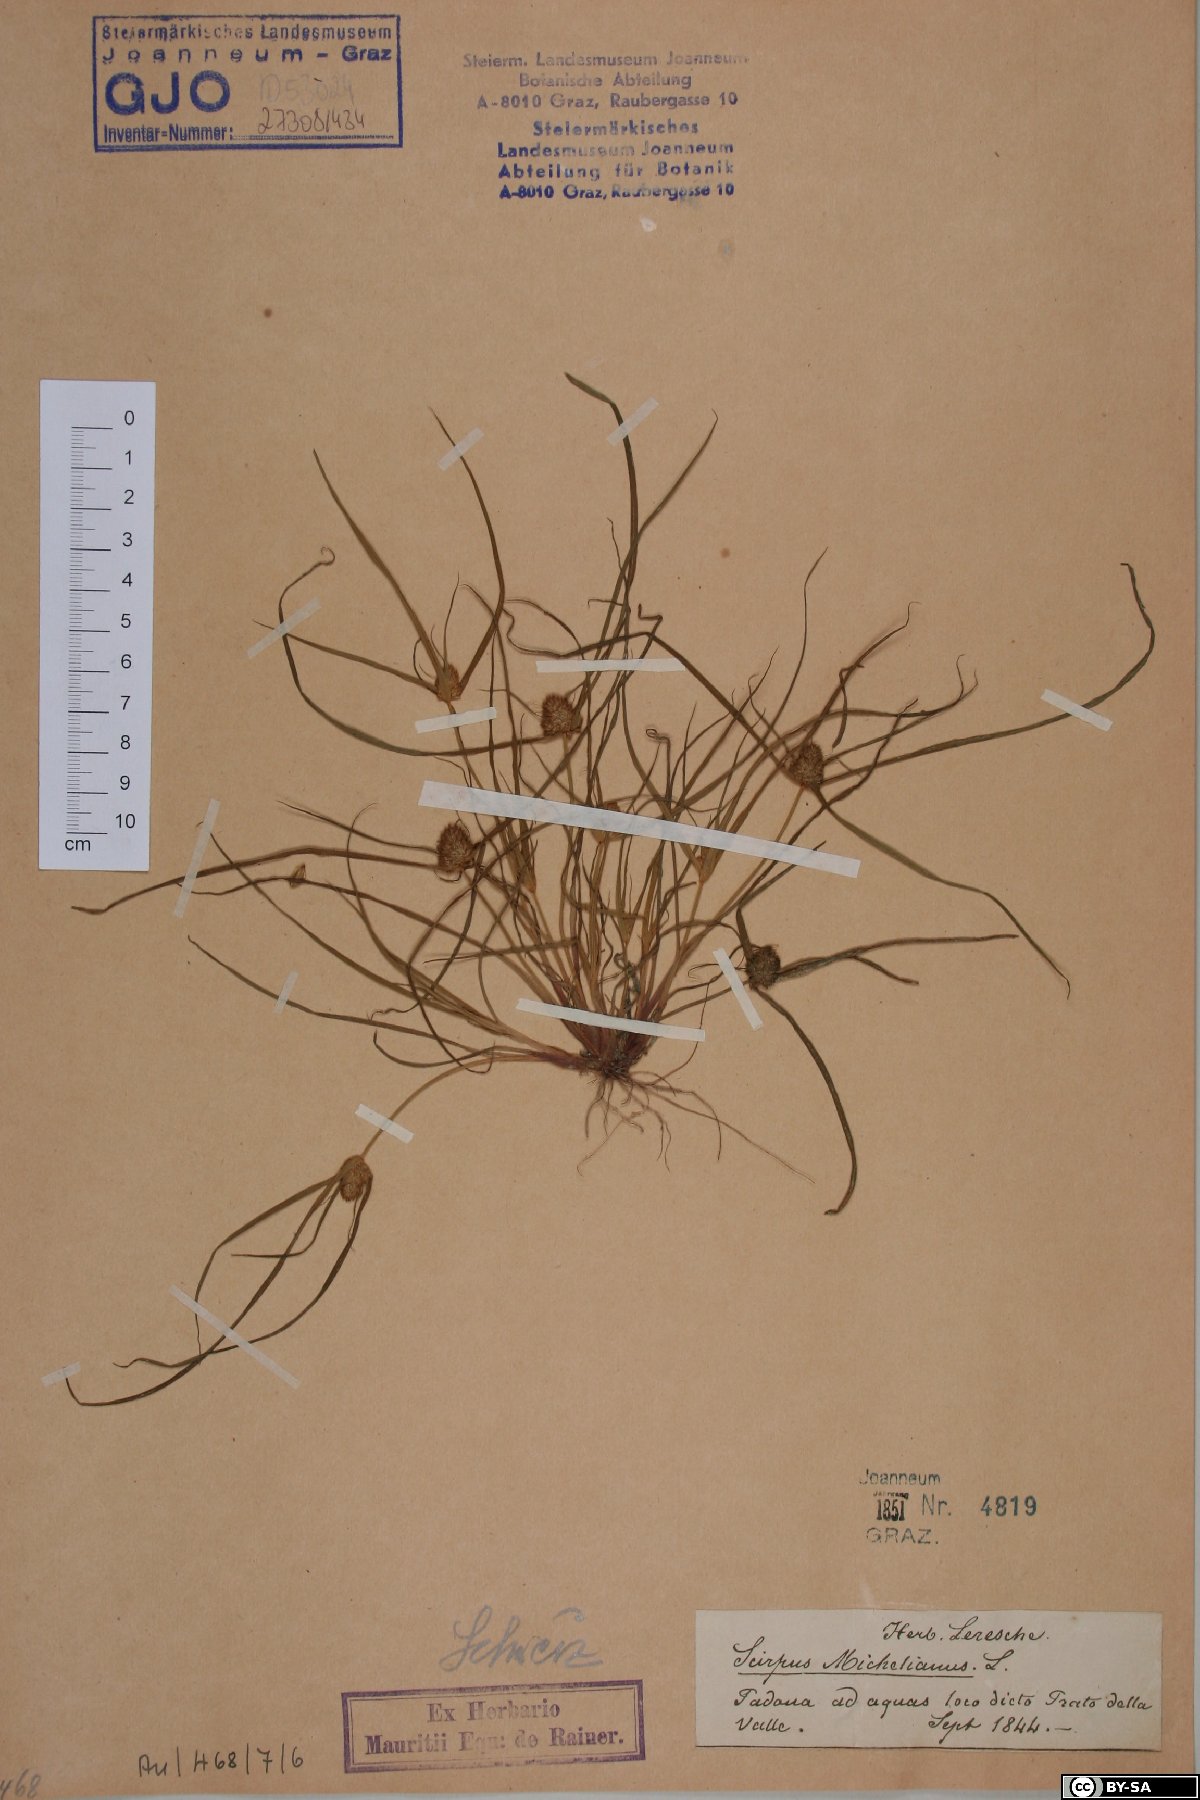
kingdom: Plantae
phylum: Tracheophyta
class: Liliopsida
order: Poales
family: Cyperaceae
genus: Cyperus
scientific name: Cyperus michelianus
